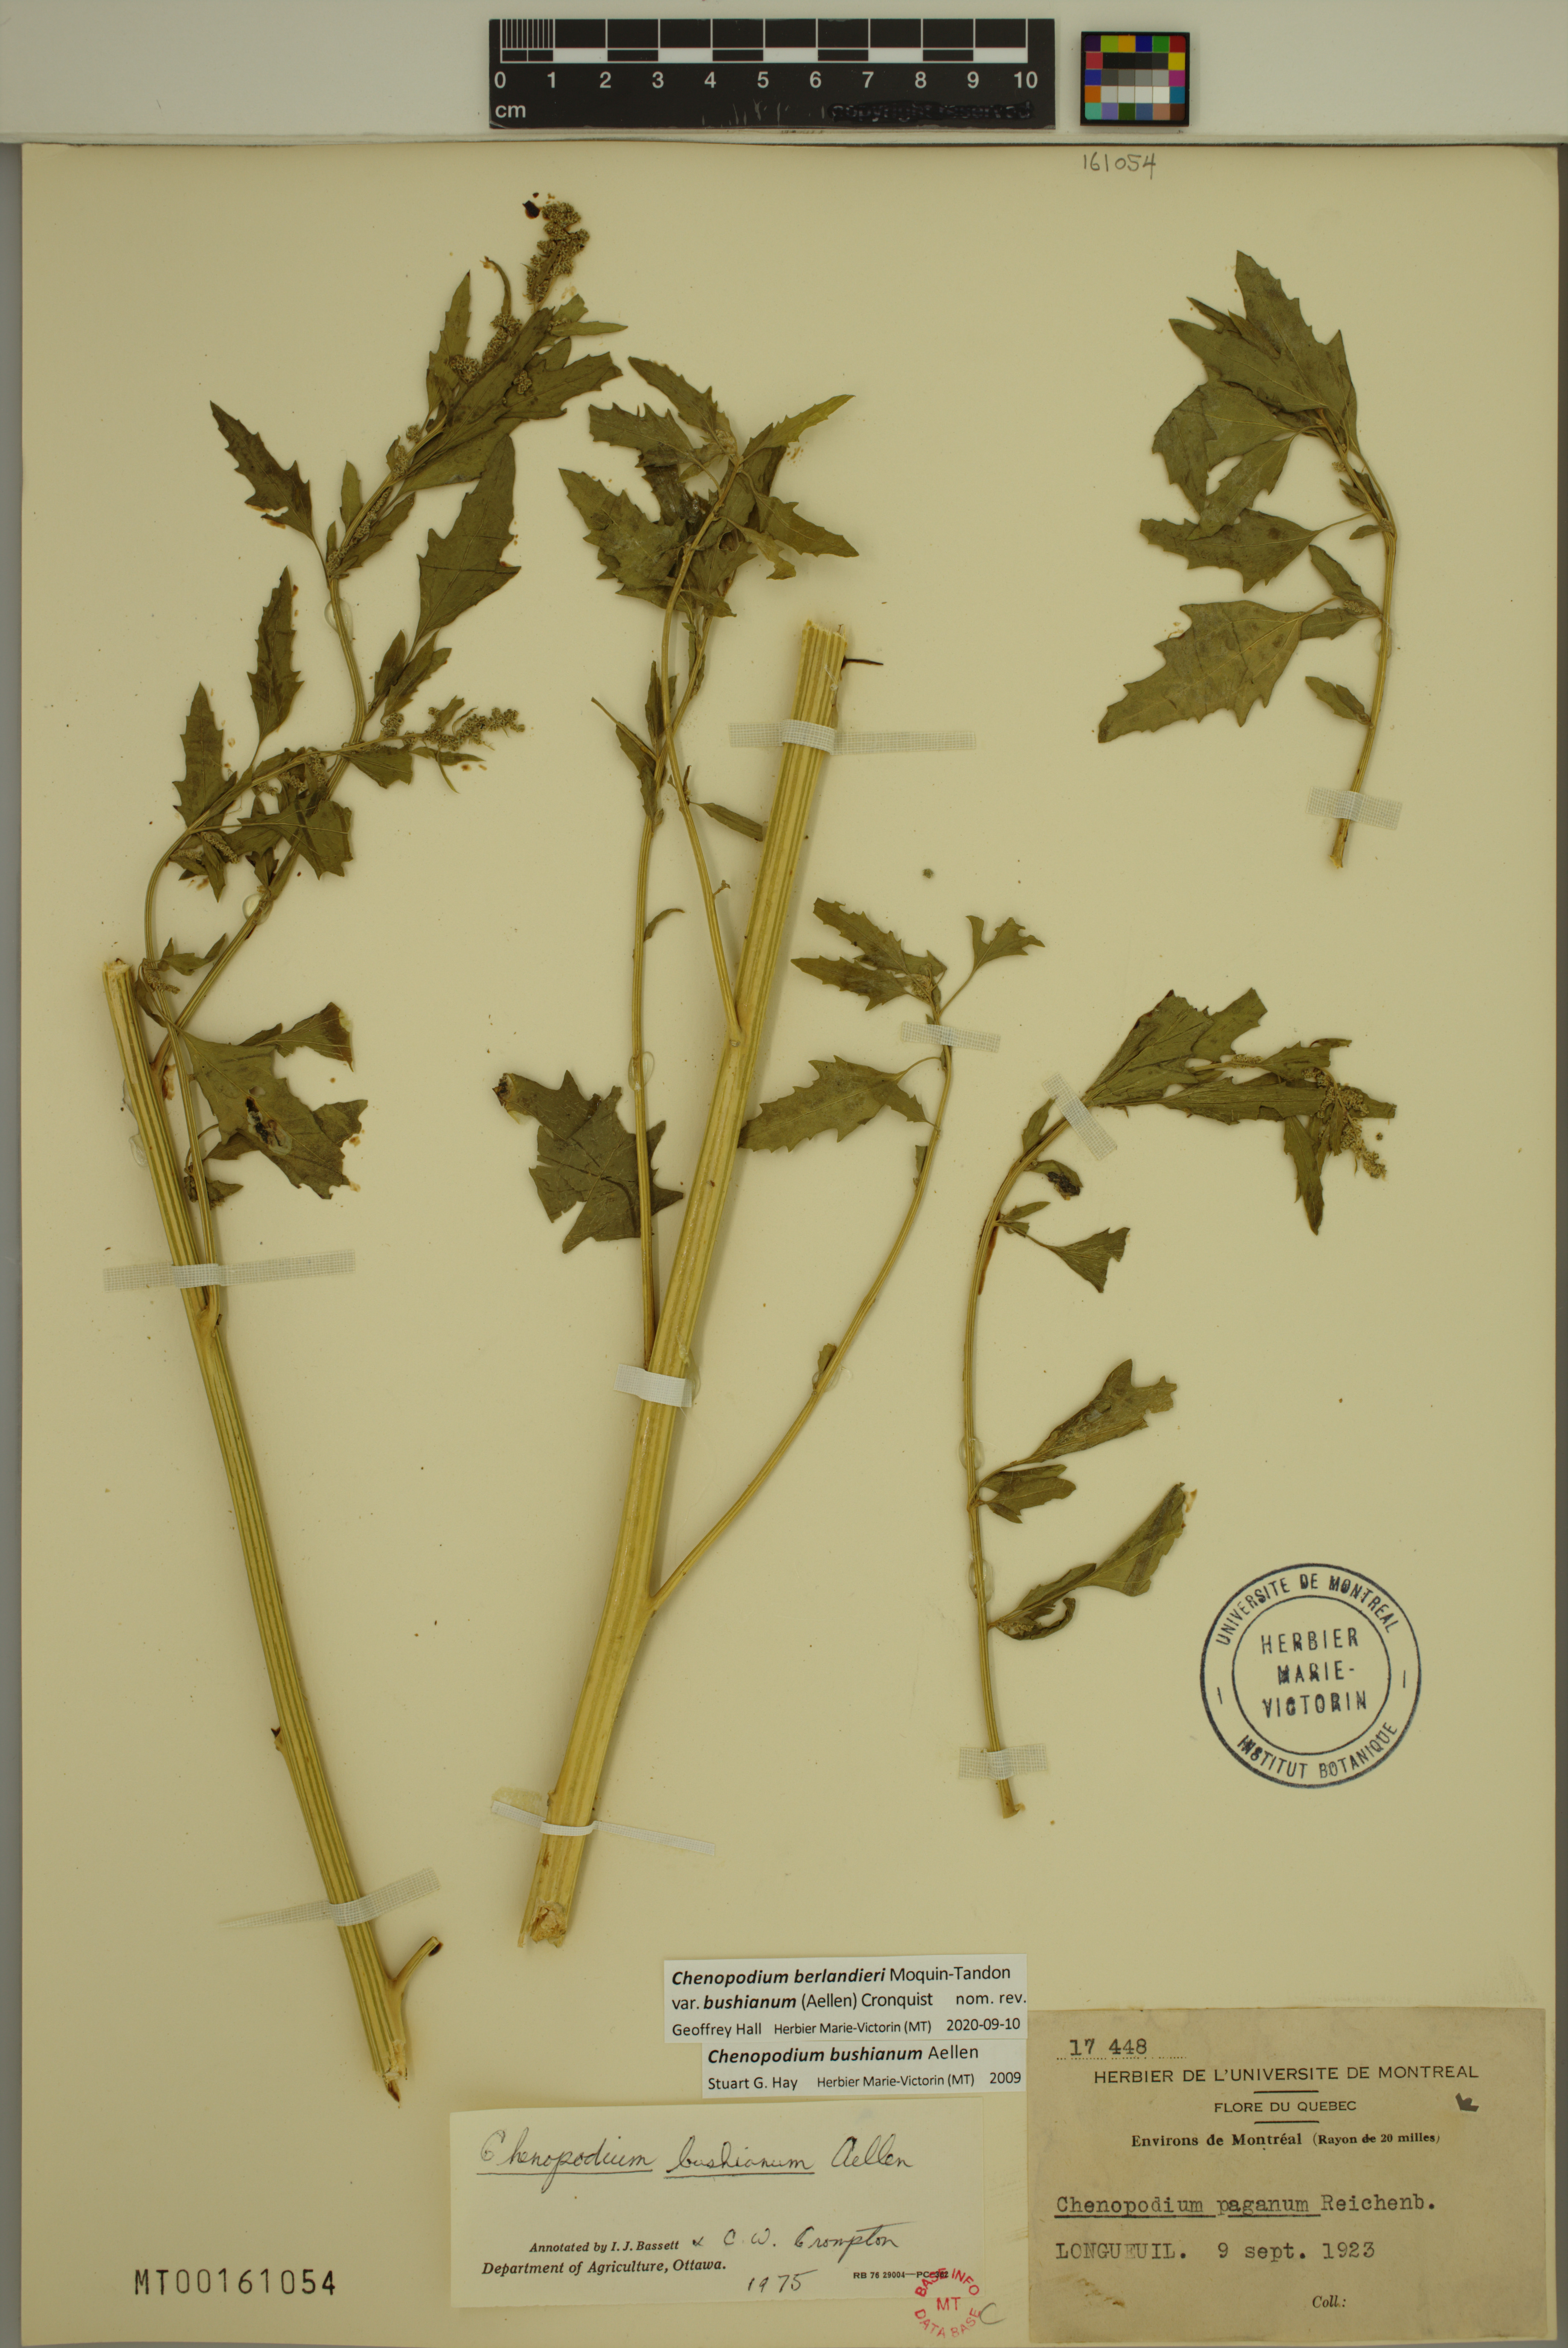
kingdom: Plantae
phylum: Tracheophyta
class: Magnoliopsida
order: Caryophyllales
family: Amaranthaceae
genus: Chenopodium
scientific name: Chenopodium berlandieri
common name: Pit-seed goosefoot
